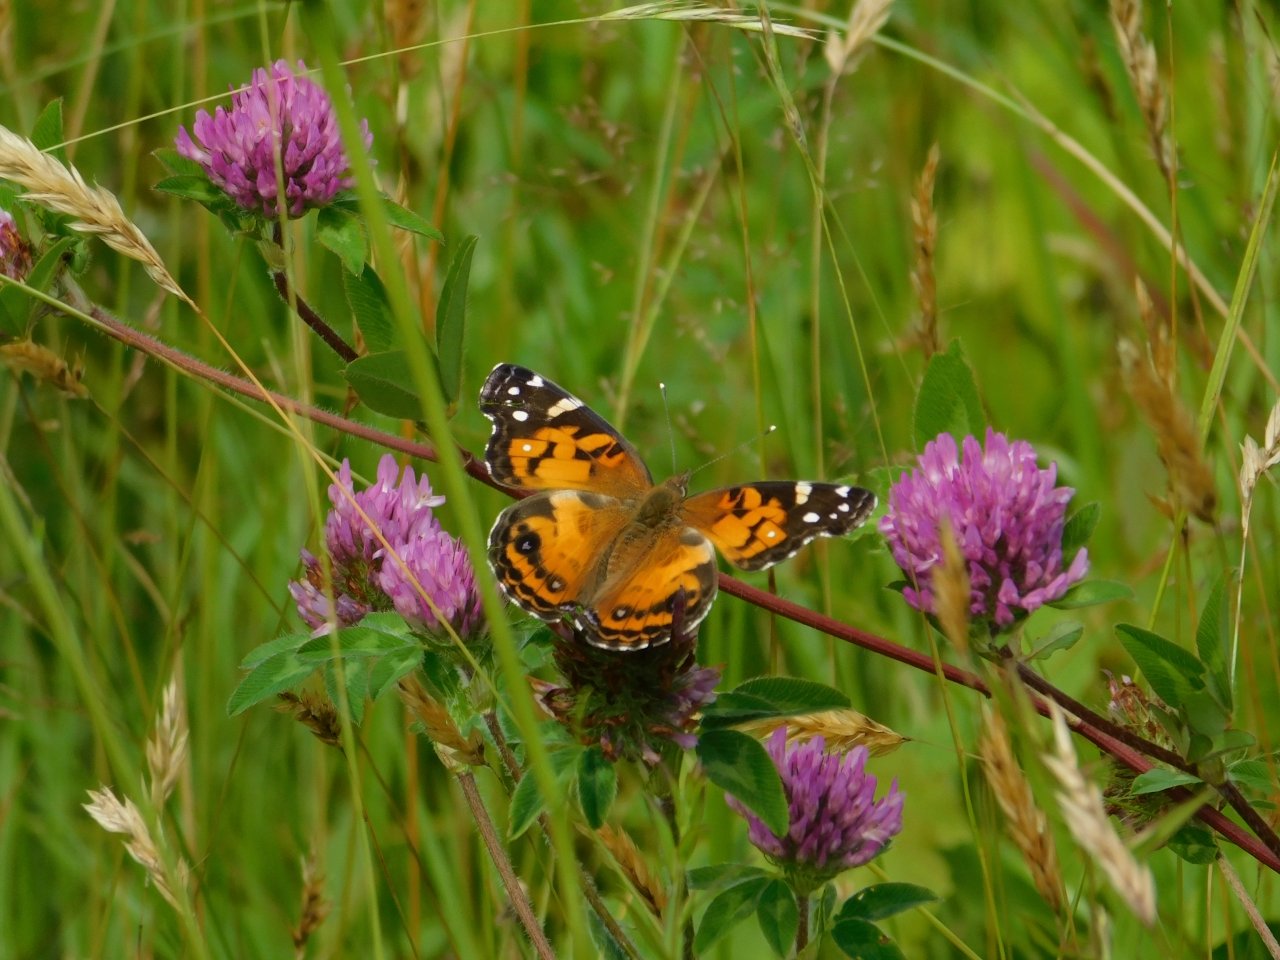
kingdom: Animalia
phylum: Arthropoda
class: Insecta
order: Lepidoptera
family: Nymphalidae
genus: Vanessa
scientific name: Vanessa virginiensis
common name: American Lady
